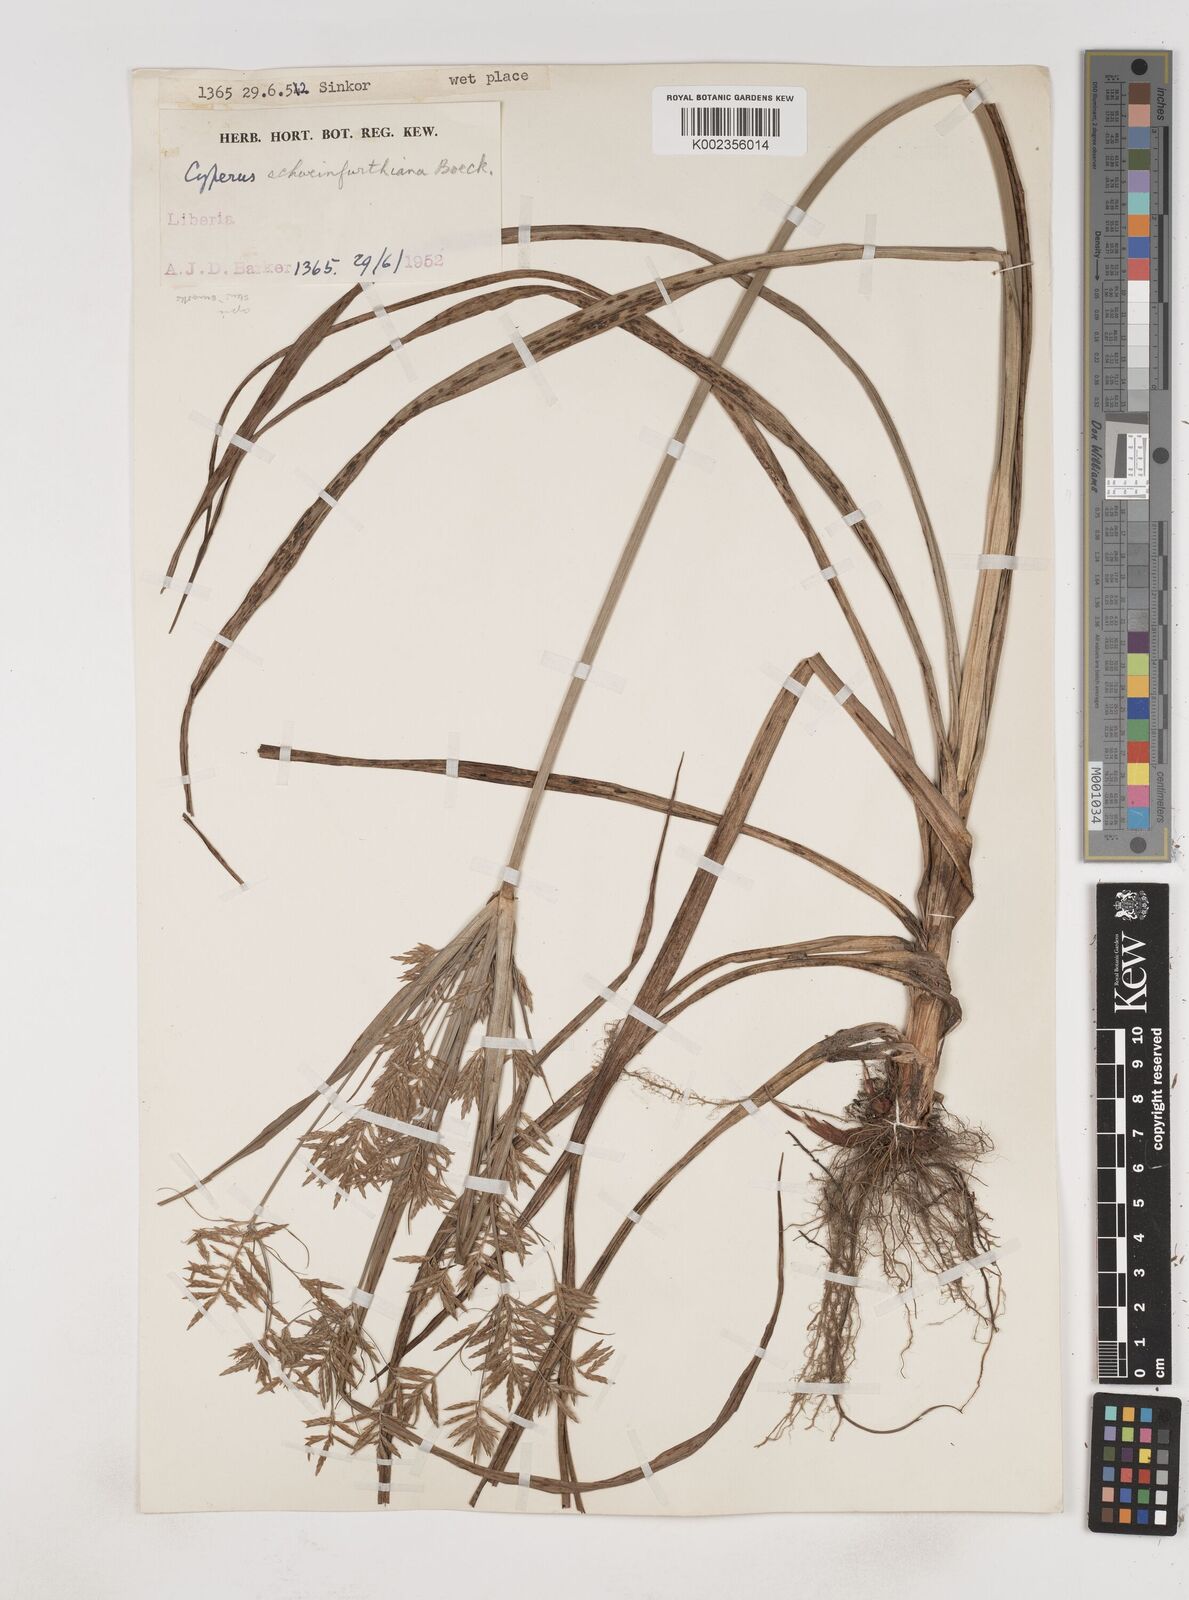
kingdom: Plantae
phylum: Tracheophyta
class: Liliopsida
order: Poales
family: Cyperaceae
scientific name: Cyperaceae
